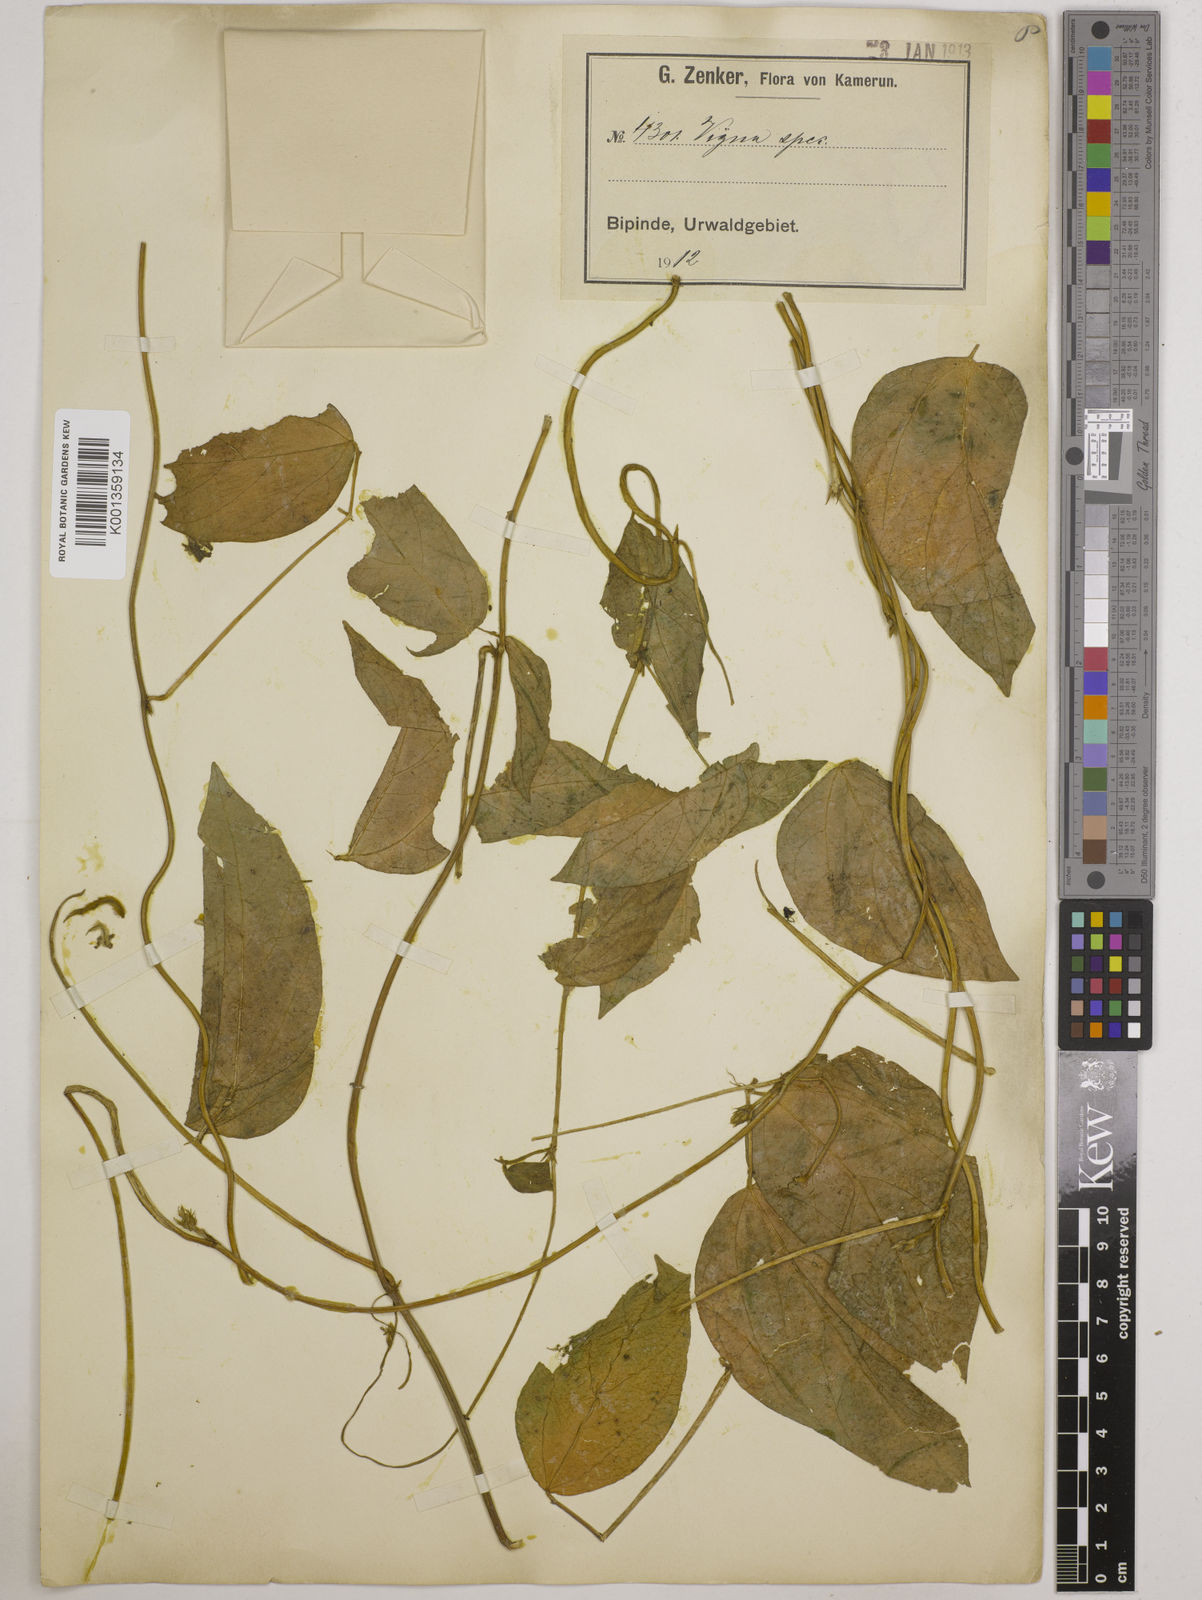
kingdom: Plantae
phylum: Tracheophyta
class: Magnoliopsida
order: Fabales
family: Fabaceae
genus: Vigna
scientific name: Vigna juruana
